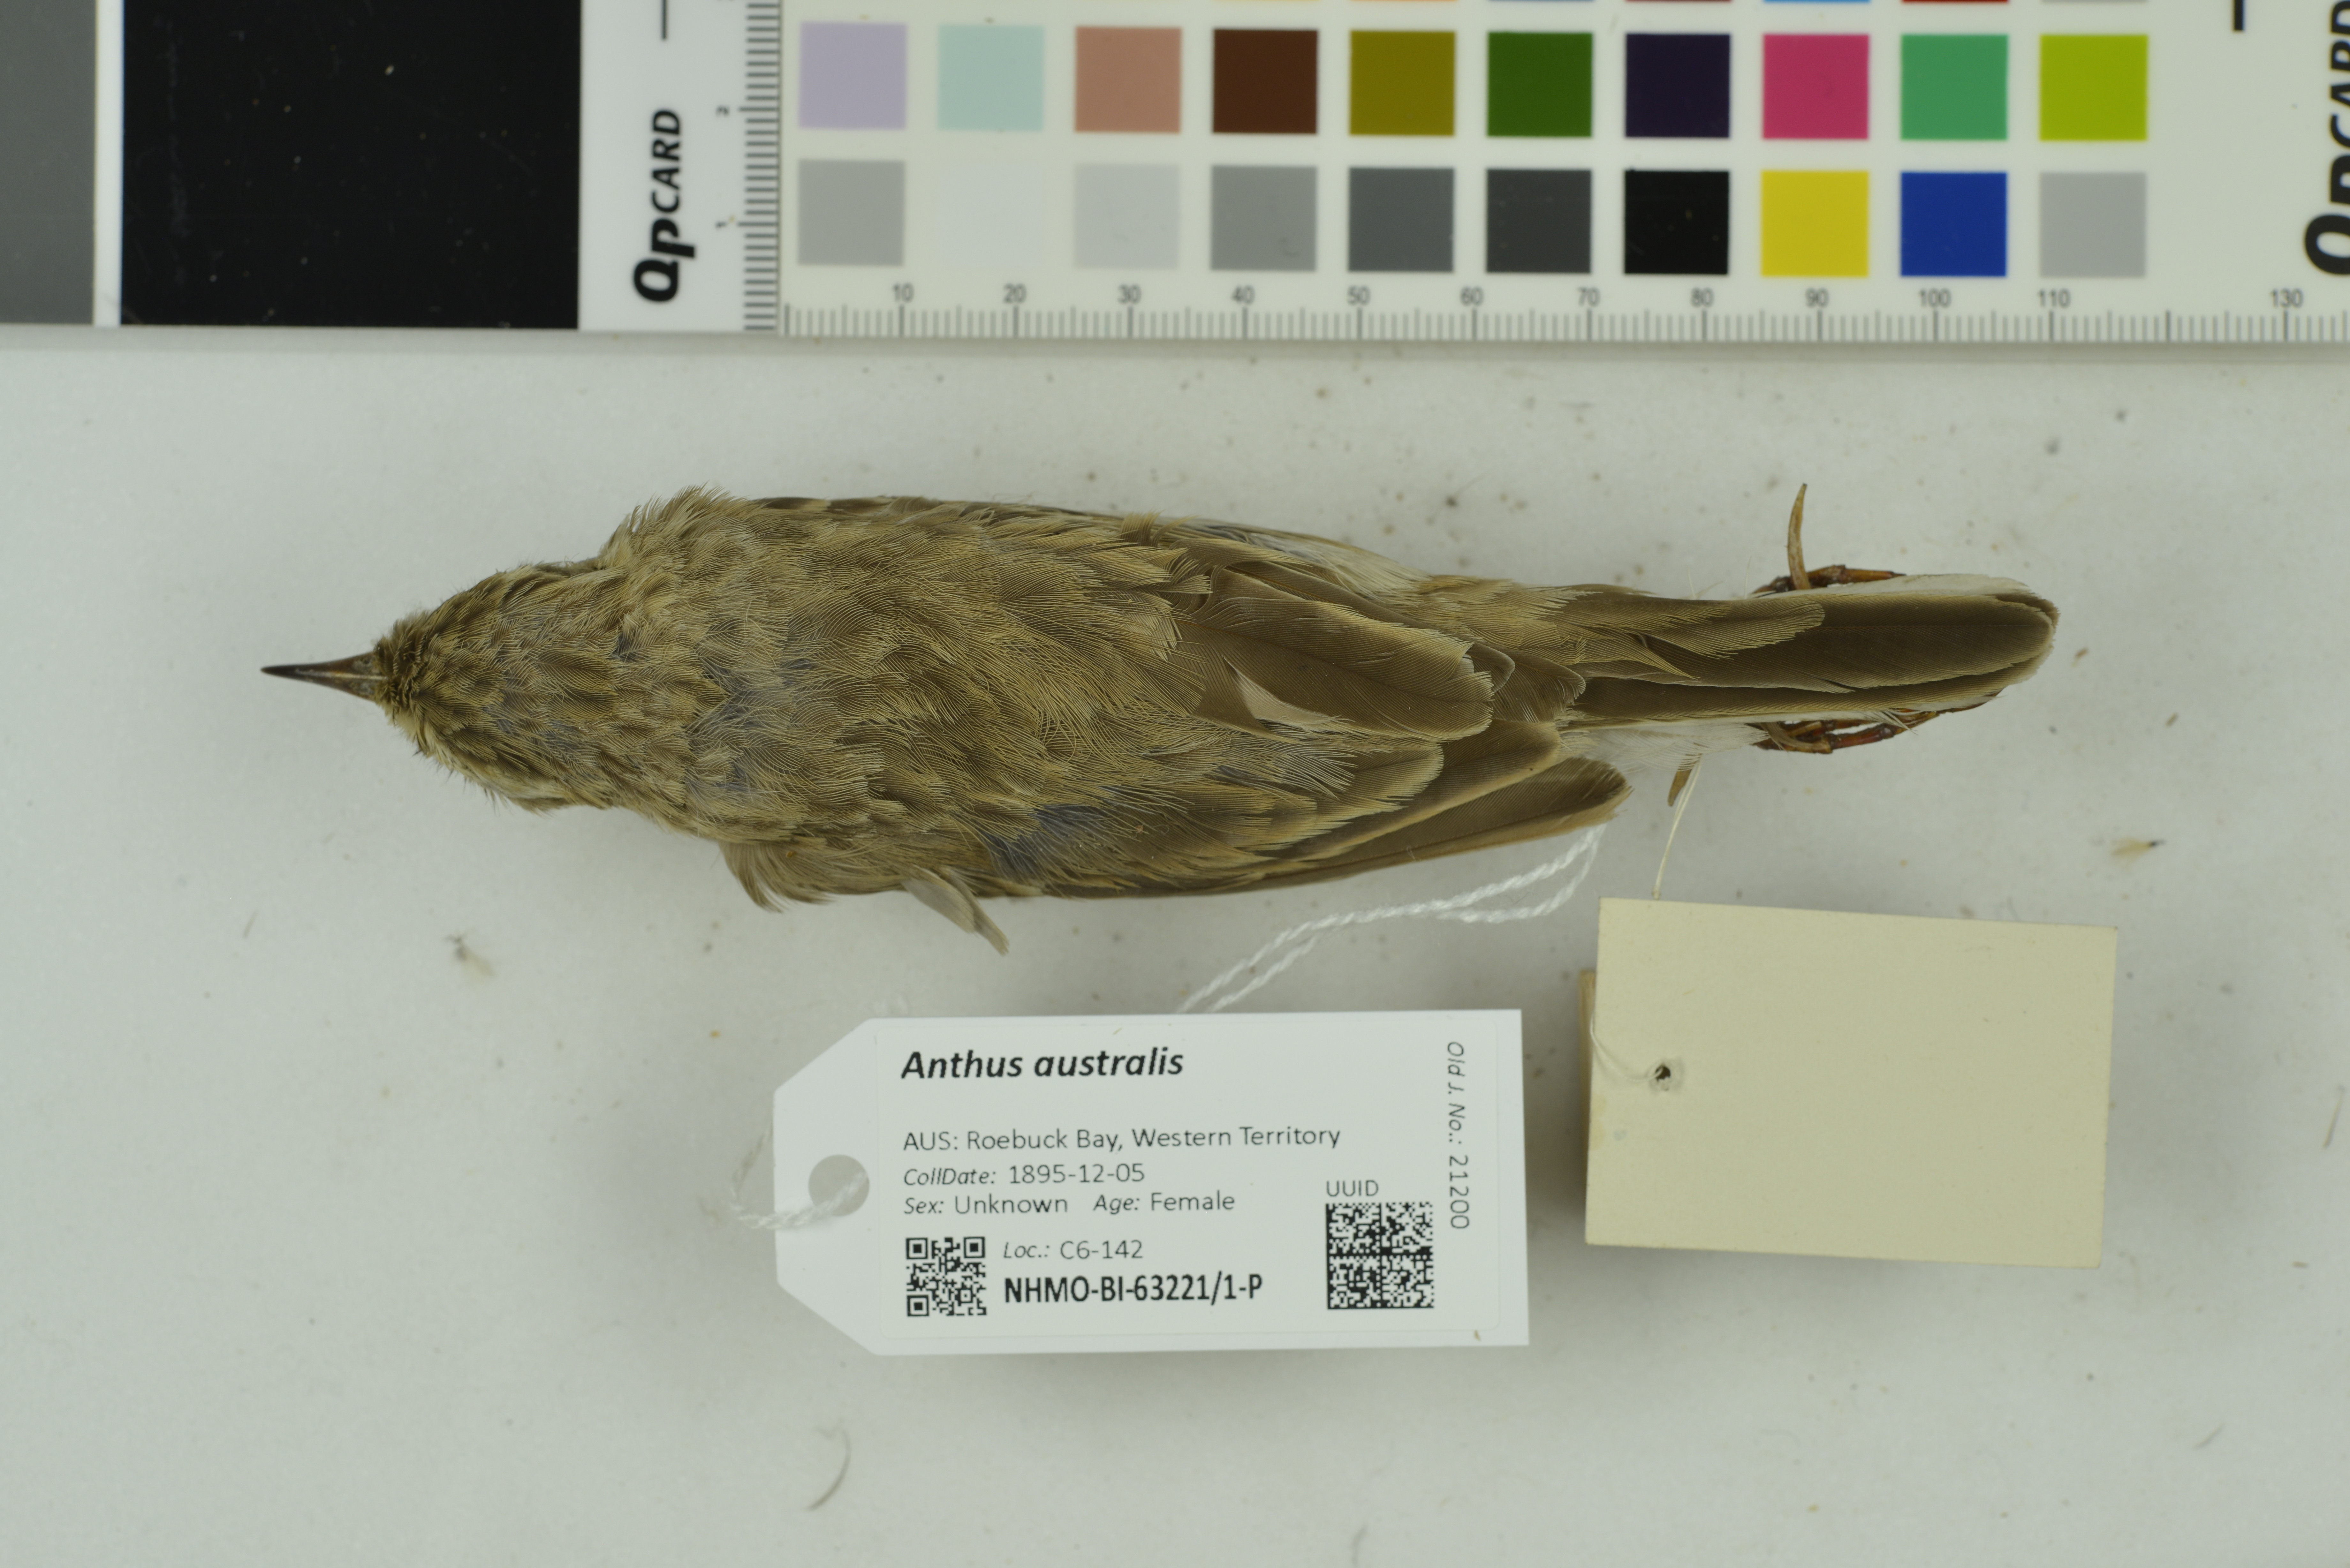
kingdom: Animalia
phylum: Chordata
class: Aves
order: Passeriformes
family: Motacillidae
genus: Anthus
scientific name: Anthus australis
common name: Australian pipit
